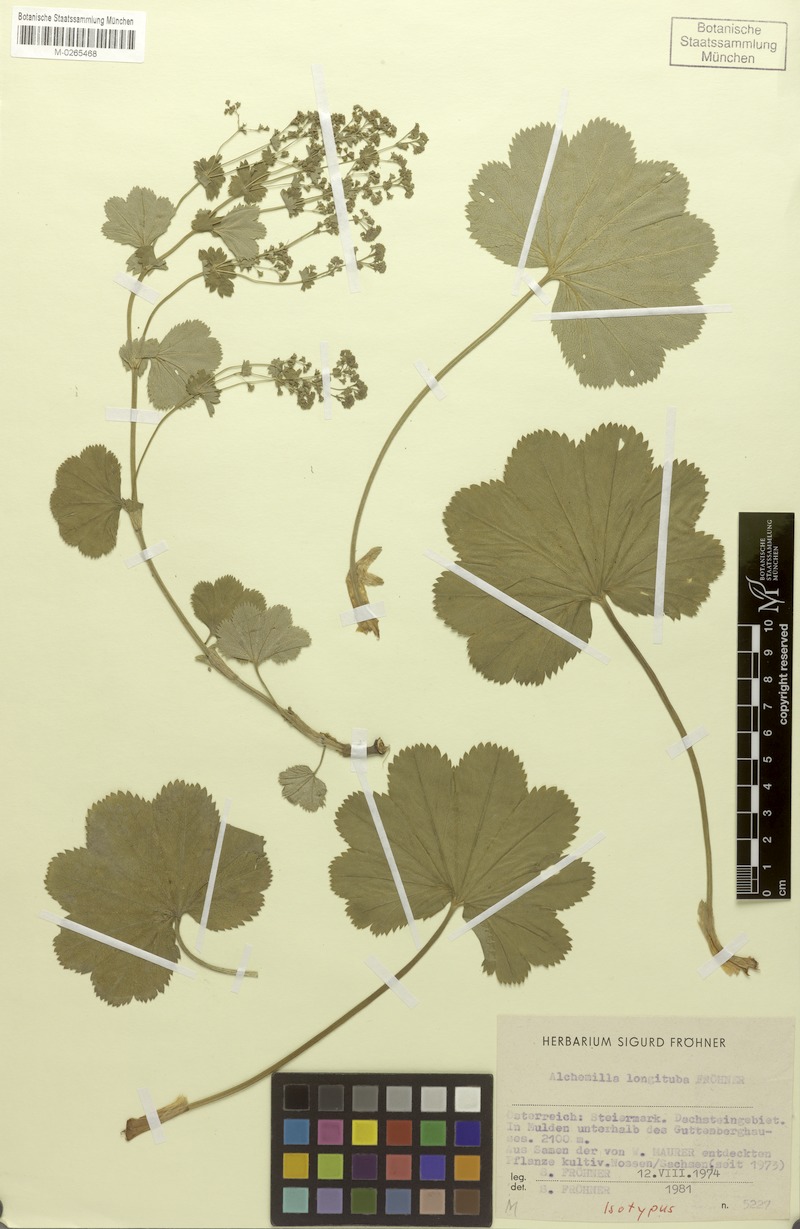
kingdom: Plantae
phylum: Tracheophyta
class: Magnoliopsida
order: Rosales
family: Rosaceae
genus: Alchemilla
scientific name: Alchemilla longituba
